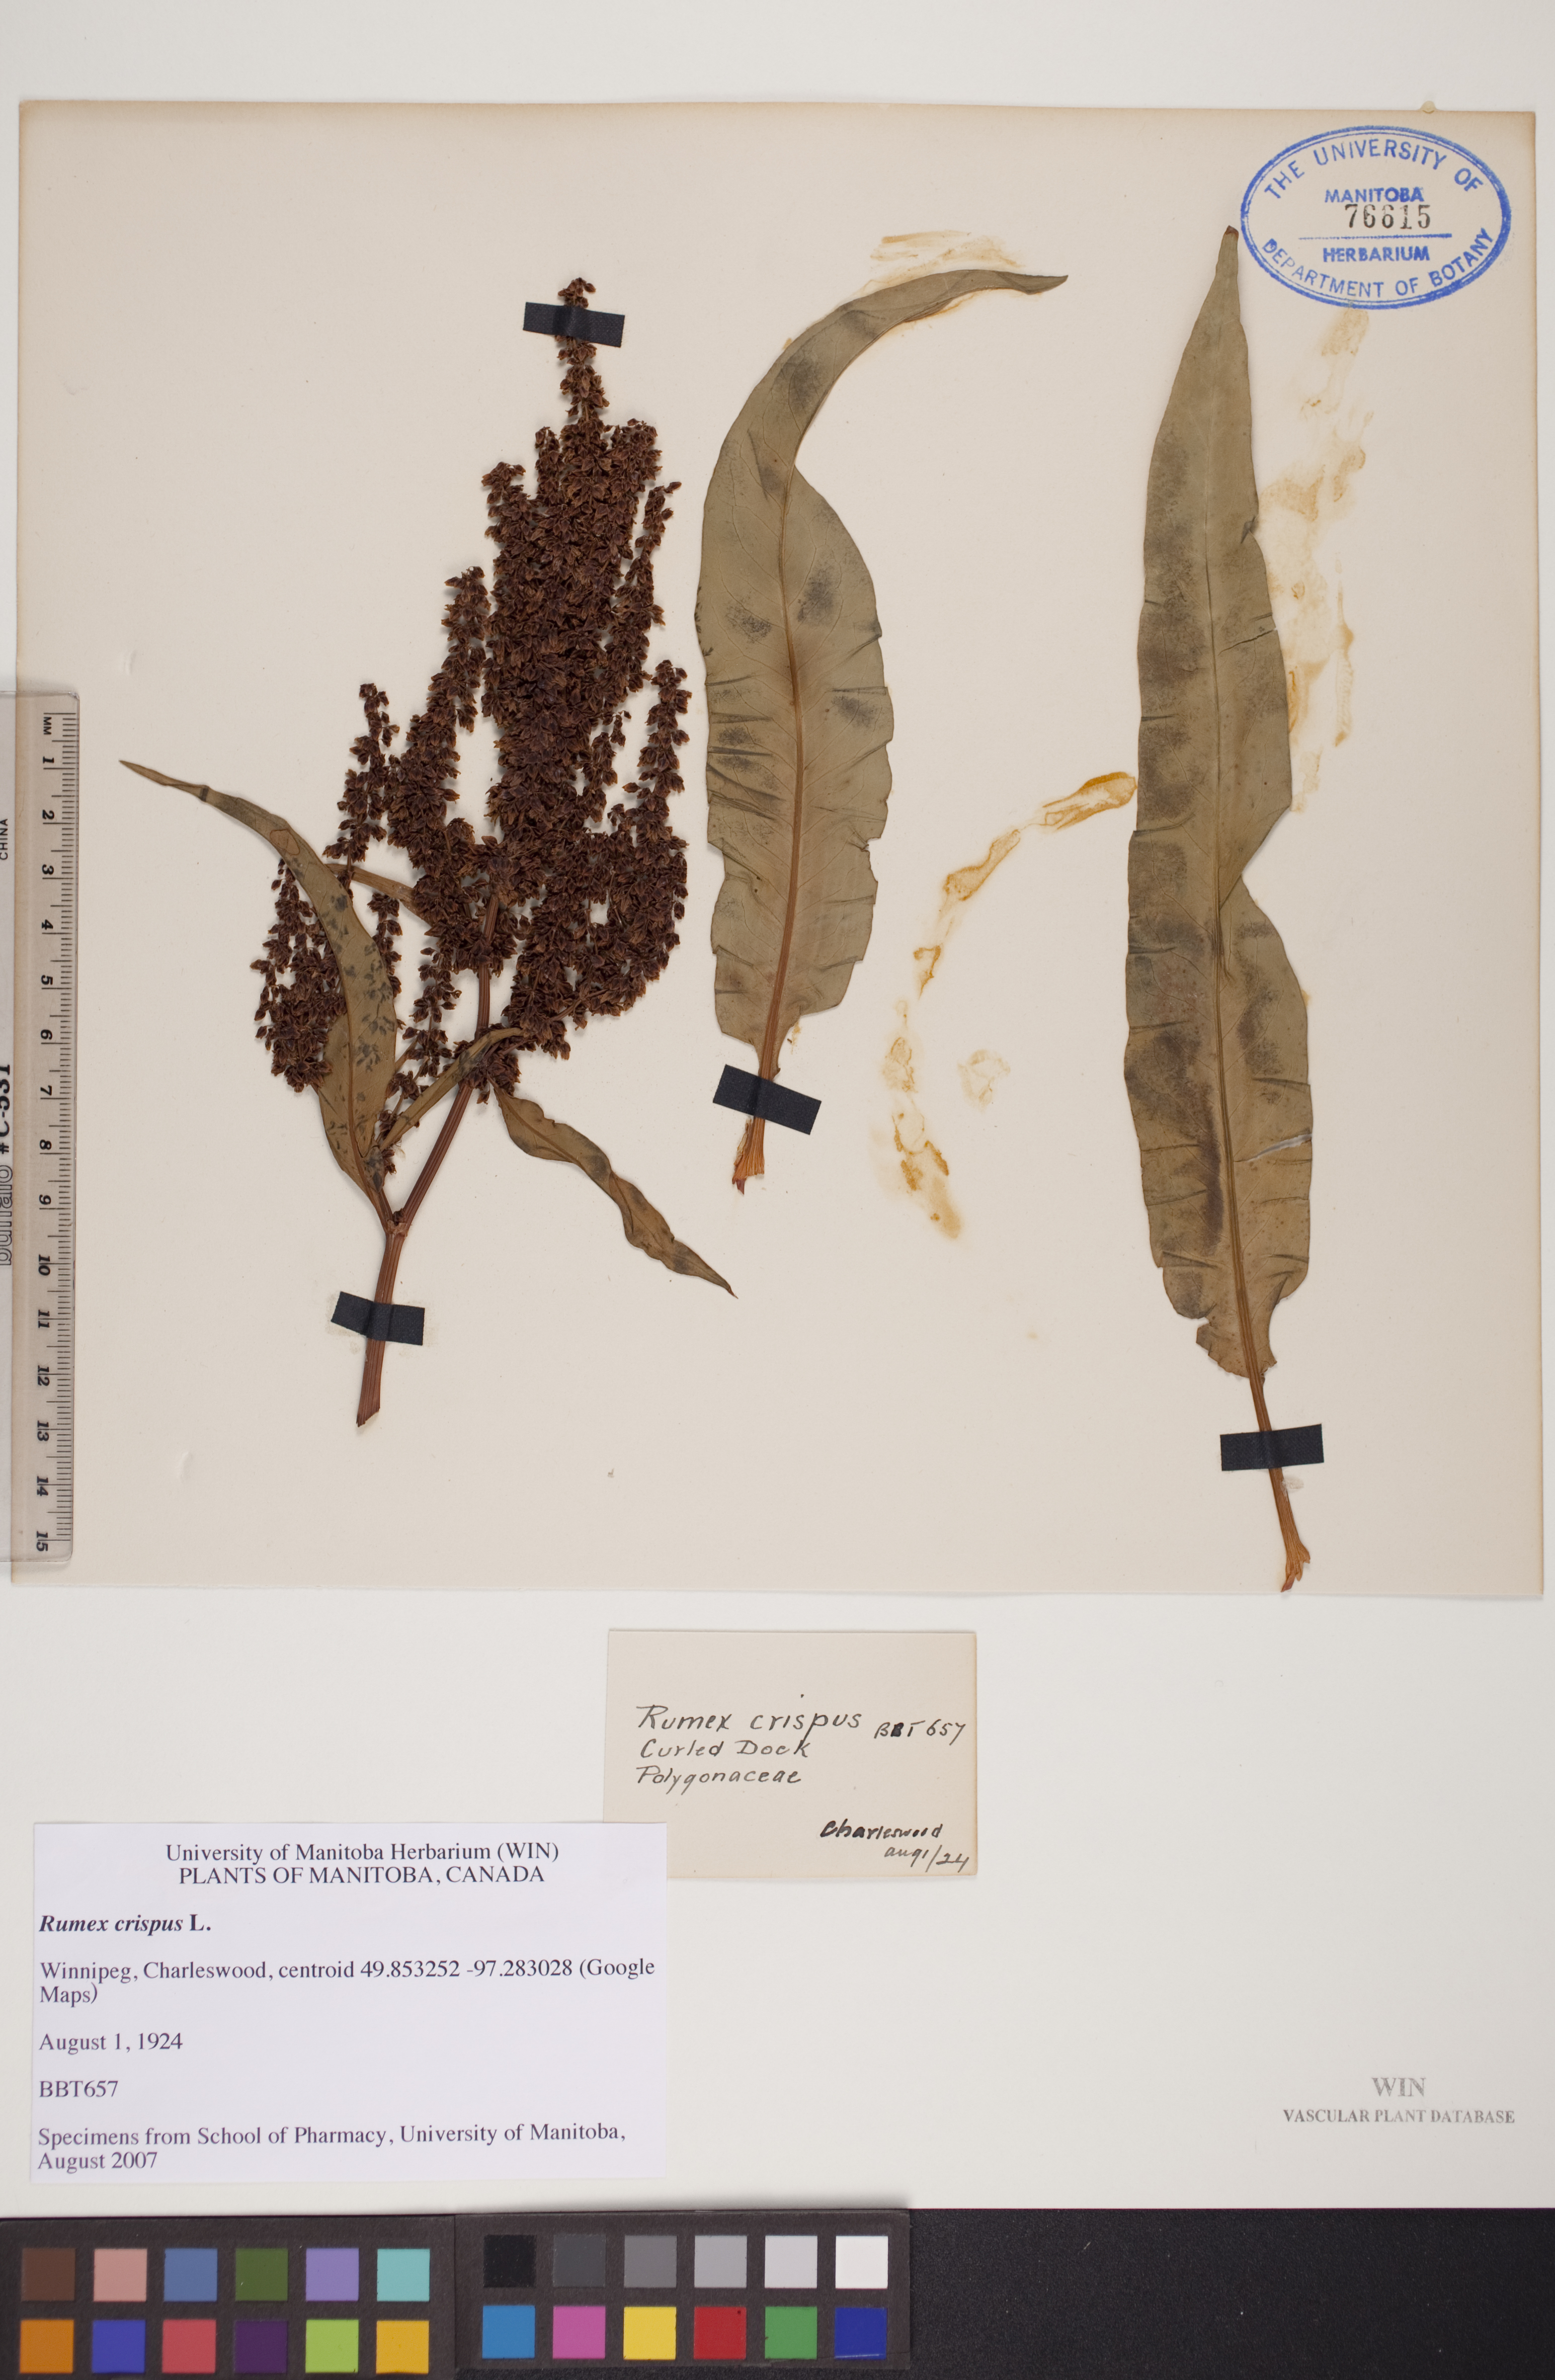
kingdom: Plantae
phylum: Tracheophyta
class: Magnoliopsida
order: Caryophyllales
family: Polygonaceae
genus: Rumex
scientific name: Rumex crispus
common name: Curled dock
